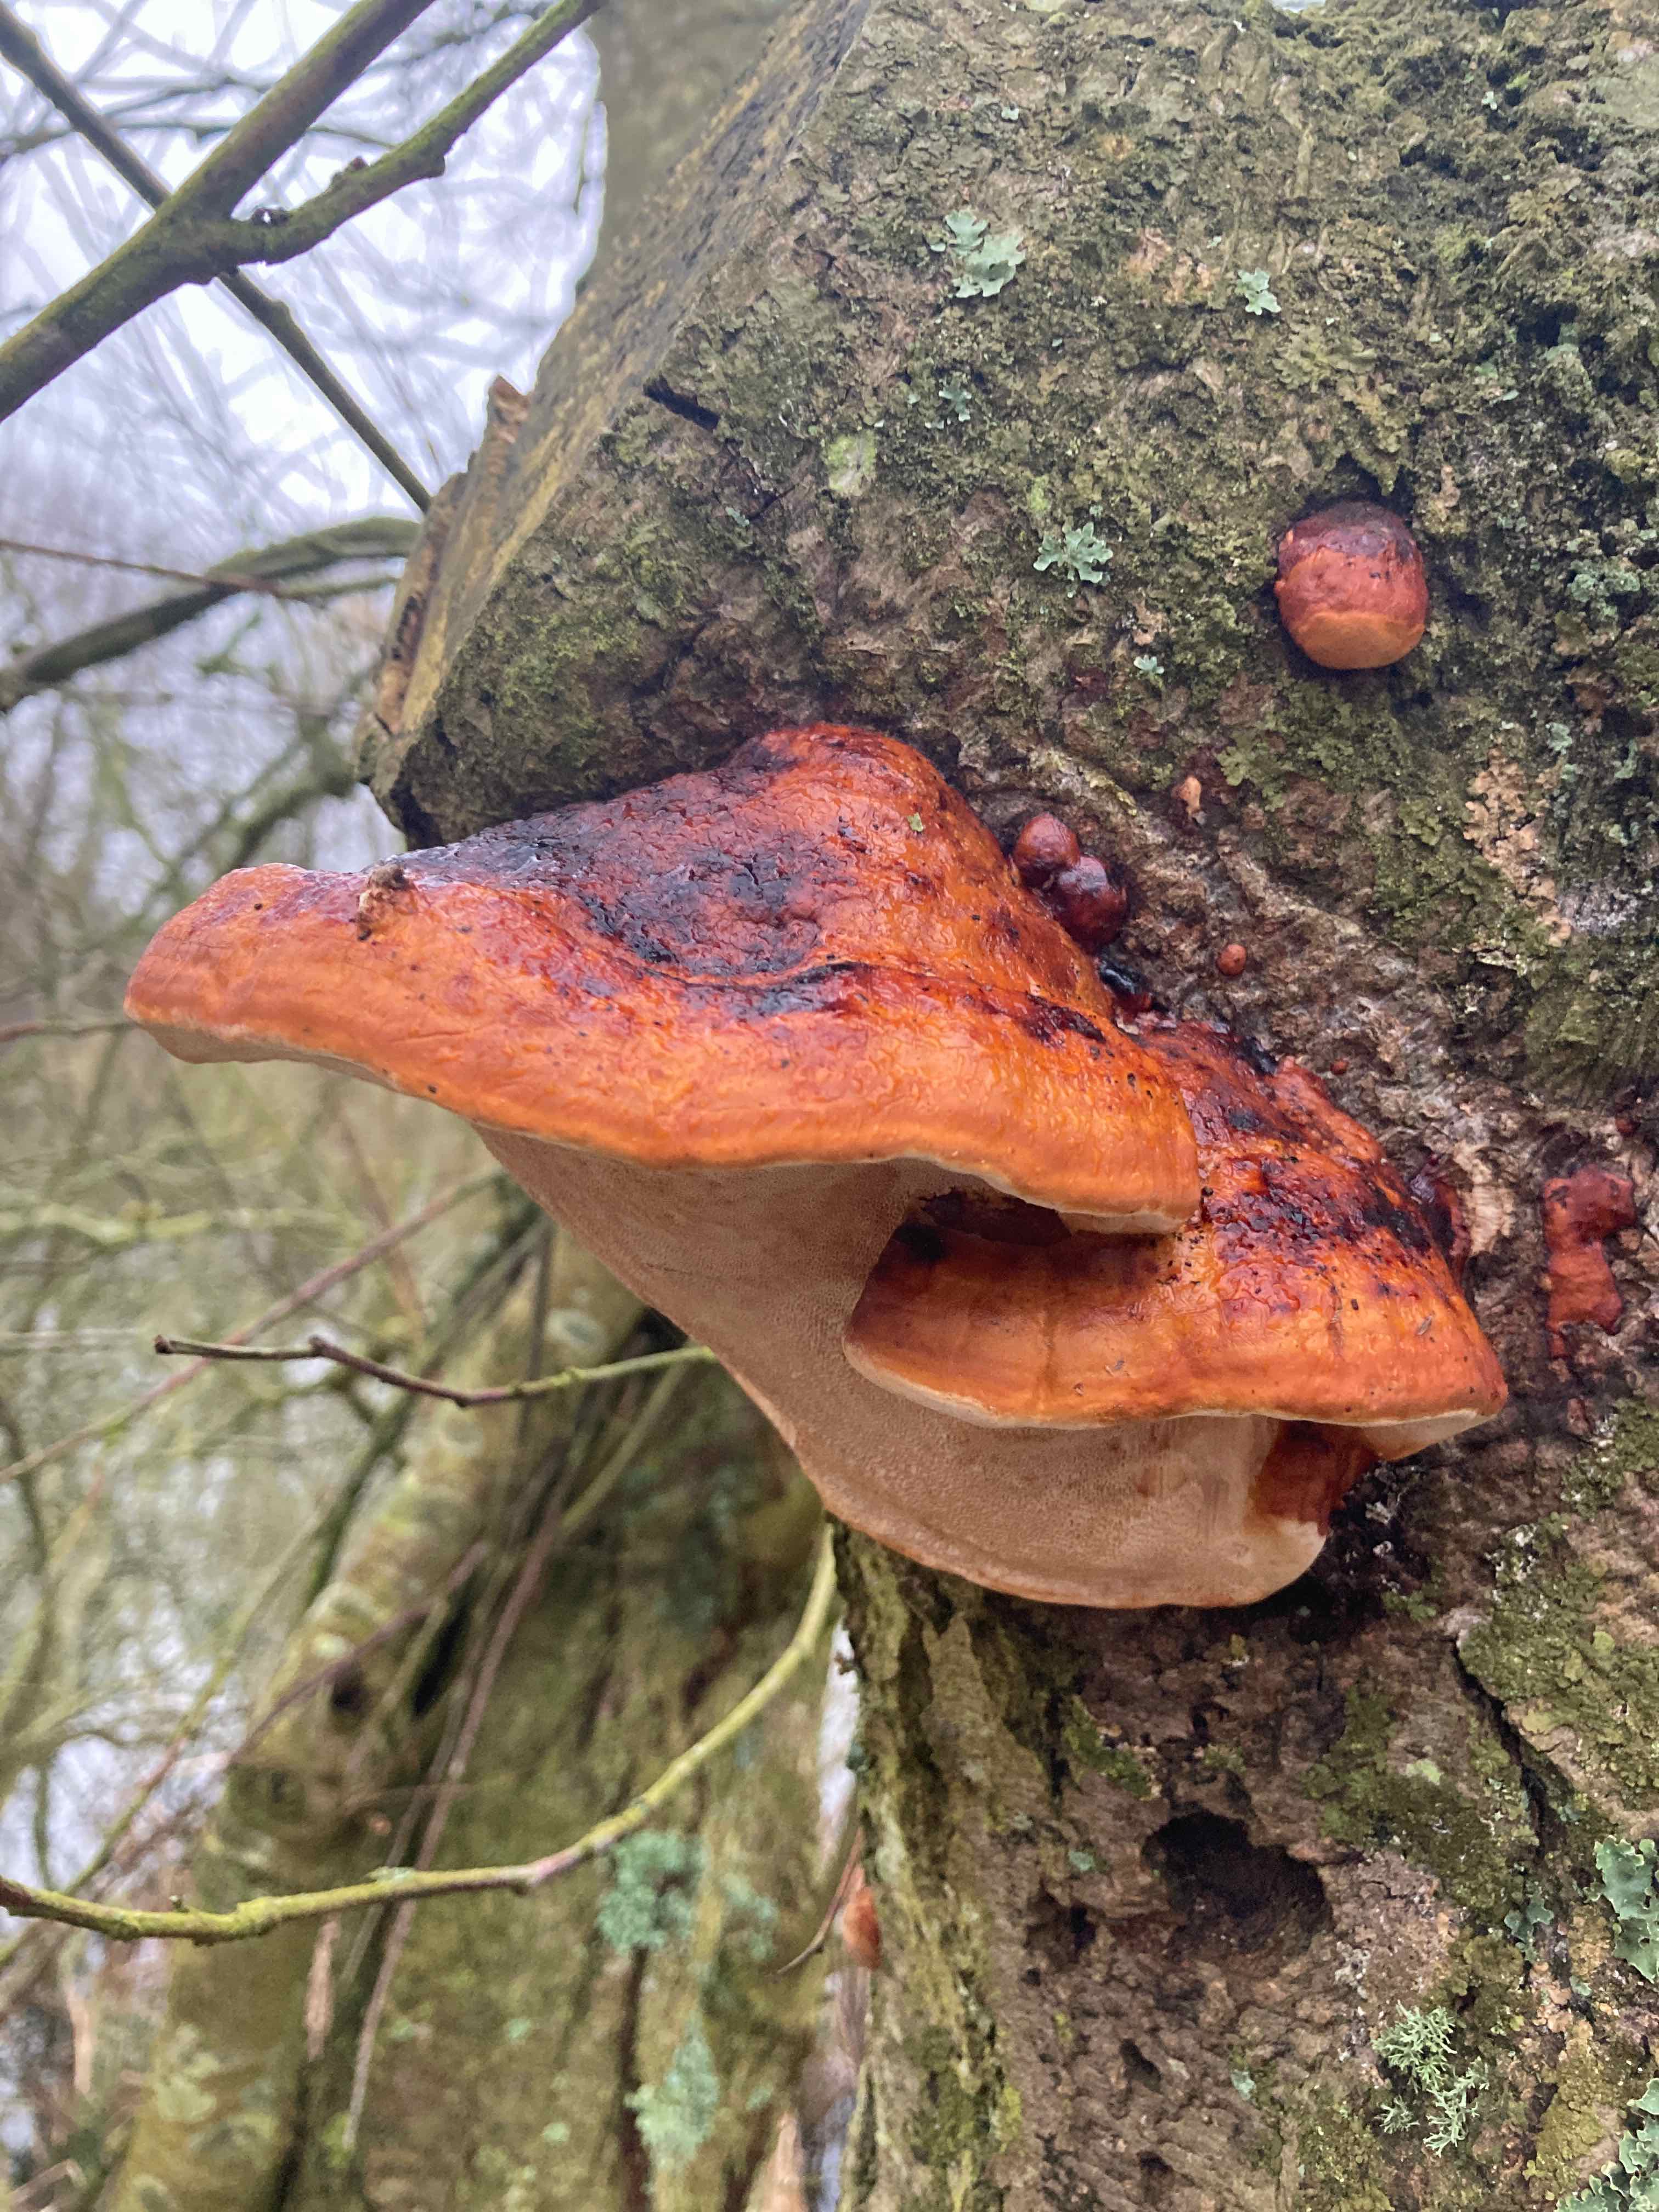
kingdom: Fungi
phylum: Basidiomycota
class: Agaricomycetes
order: Polyporales
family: Fomitopsidaceae
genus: Fomitopsis
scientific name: Fomitopsis pinicola
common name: randbæltet hovporesvamp
